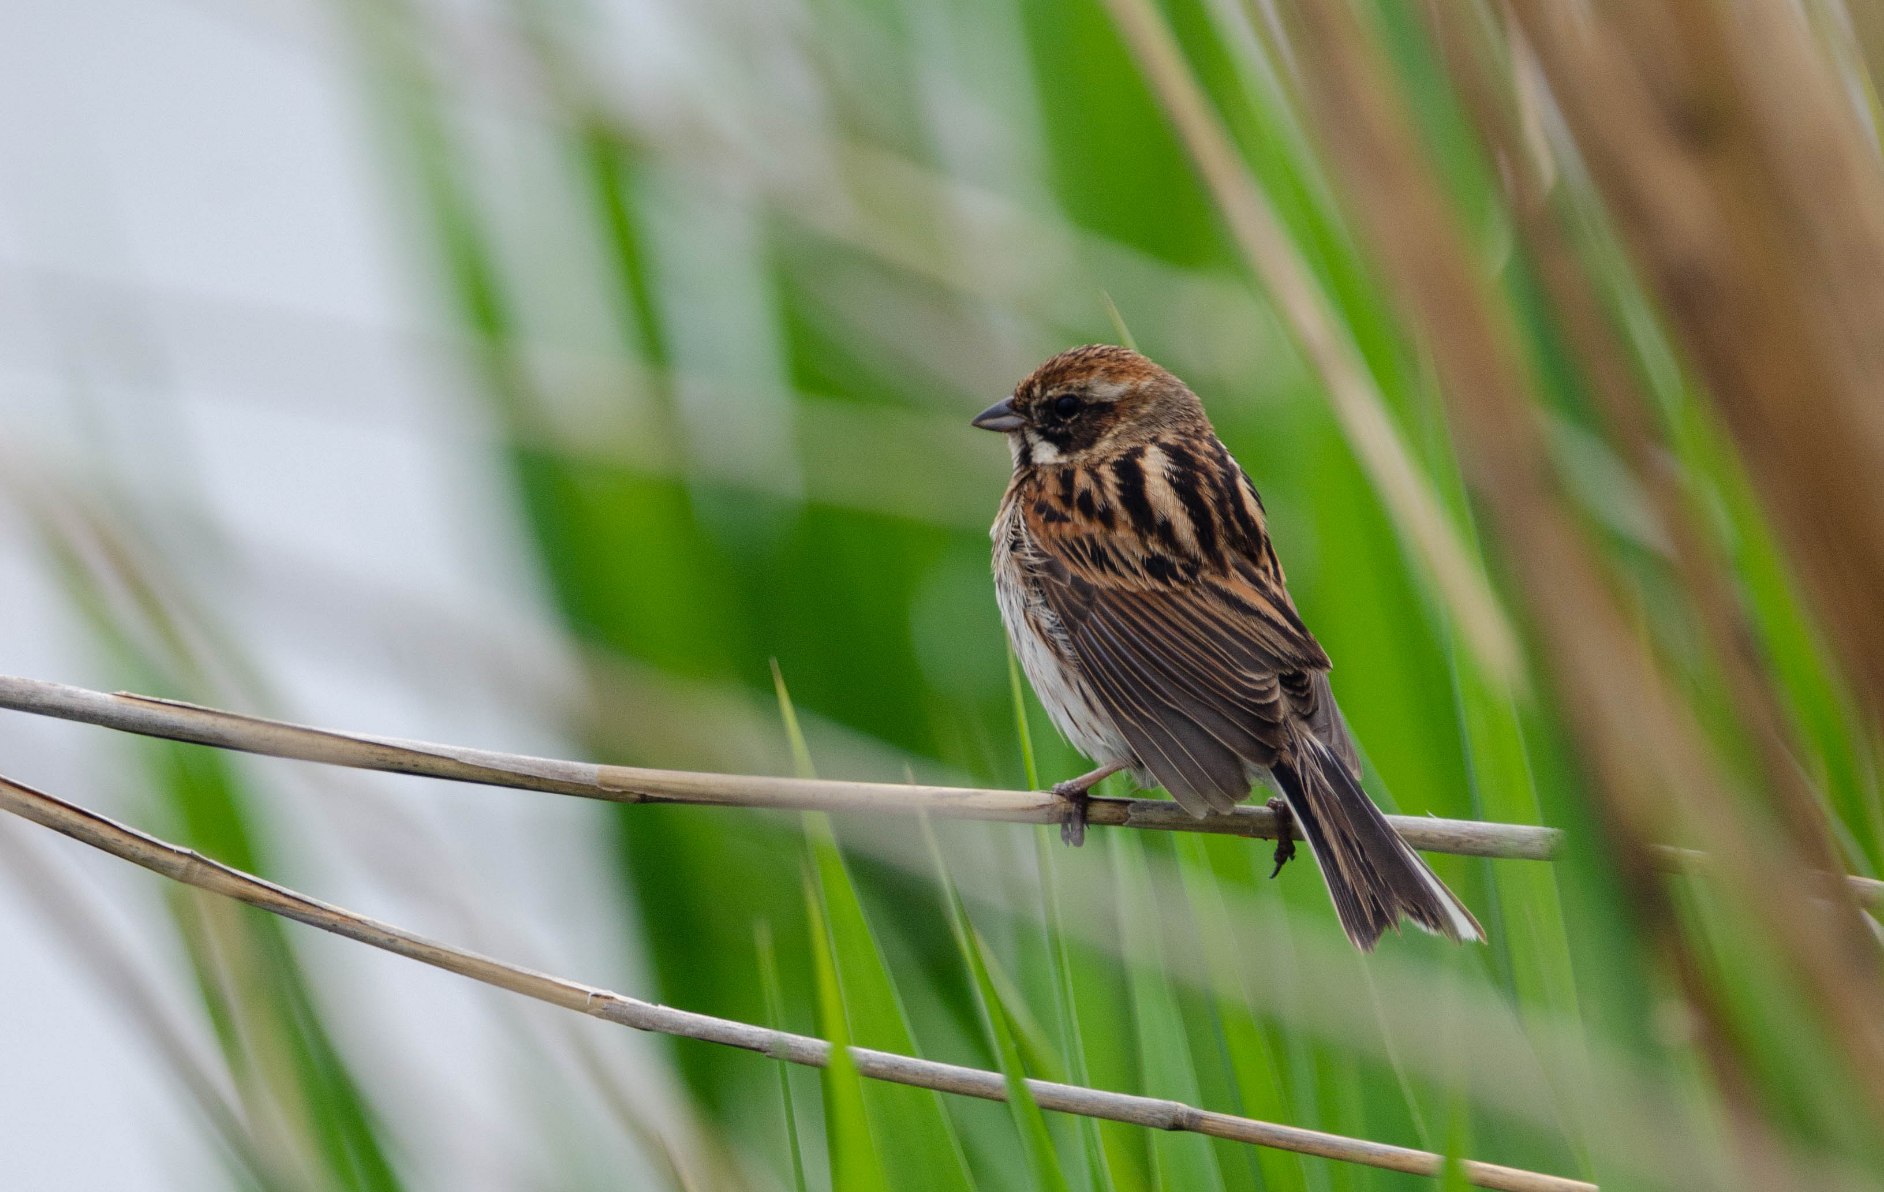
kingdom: Animalia
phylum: Chordata
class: Aves
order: Passeriformes
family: Emberizidae
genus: Emberiza
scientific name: Emberiza schoeniclus
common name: Rørspurv
